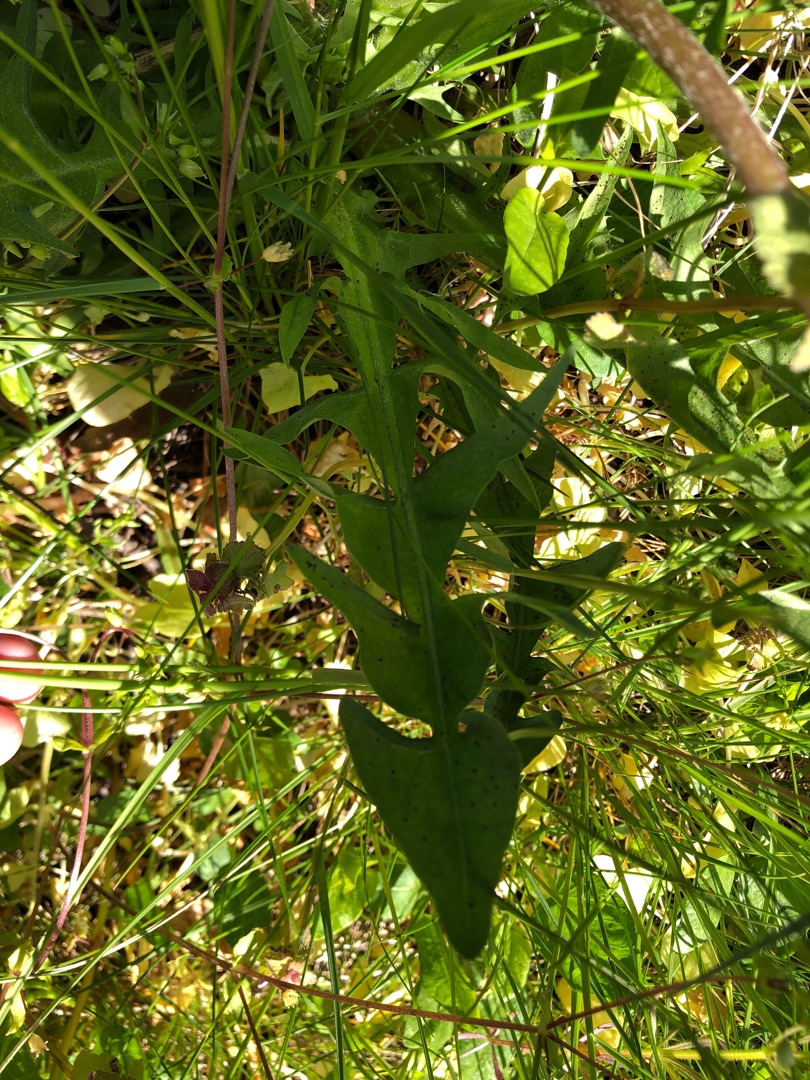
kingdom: Plantae
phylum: Tracheophyta
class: Magnoliopsida
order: Asterales
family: Asteraceae
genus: Taraxacum
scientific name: Taraxacum
